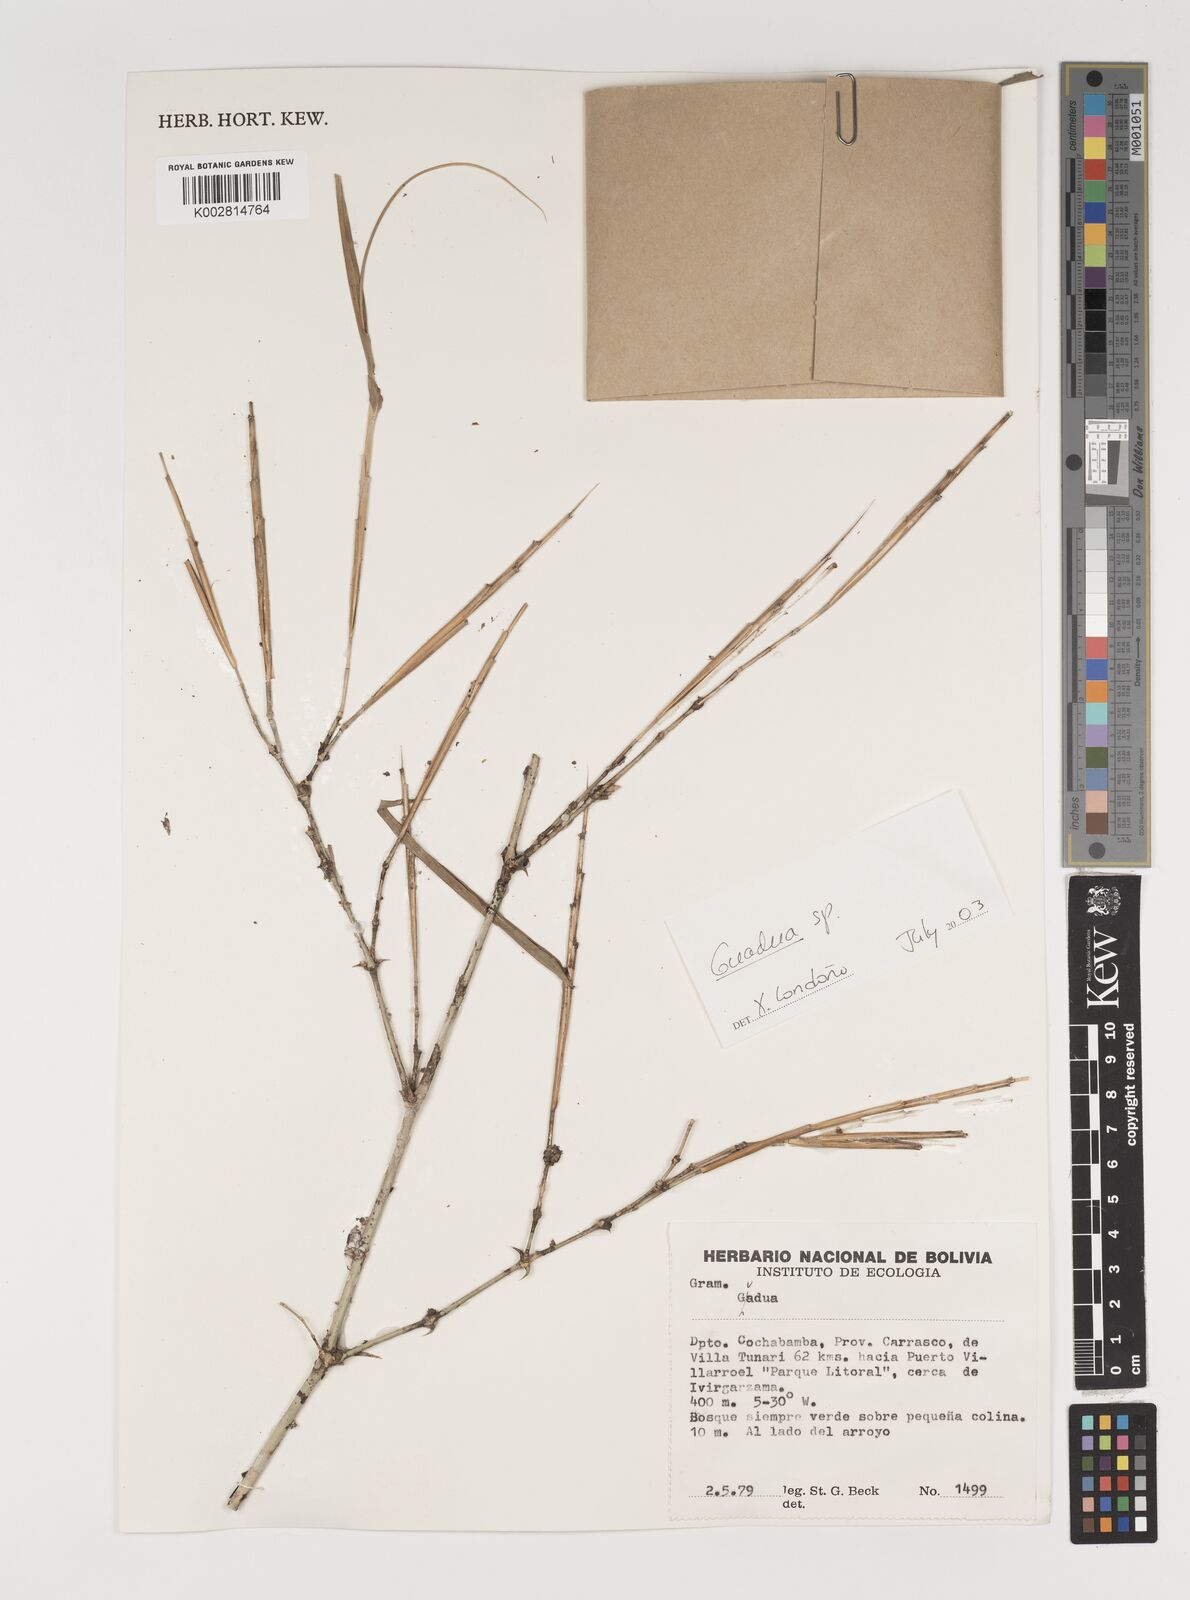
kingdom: Plantae
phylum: Tracheophyta
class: Liliopsida
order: Poales
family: Poaceae
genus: Guadua
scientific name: Guadua
